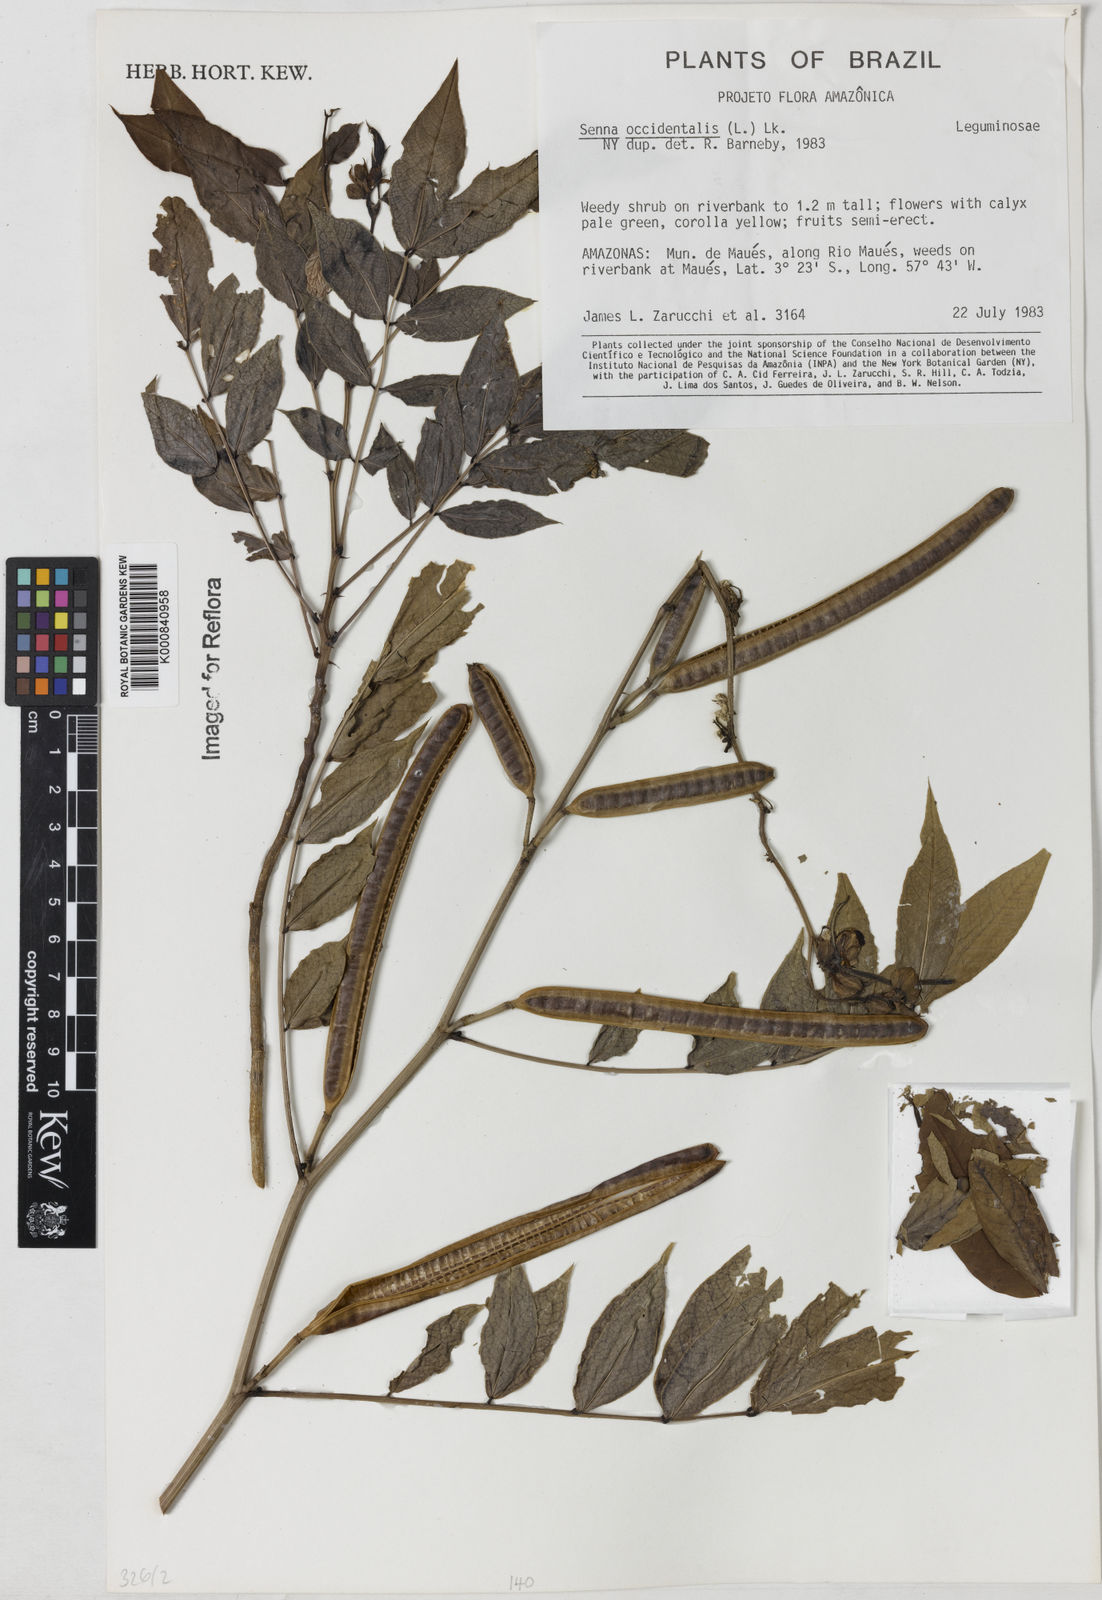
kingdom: Plantae
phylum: Tracheophyta
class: Magnoliopsida
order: Fabales
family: Fabaceae
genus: Senna
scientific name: Senna occidentalis
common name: Septicweed
